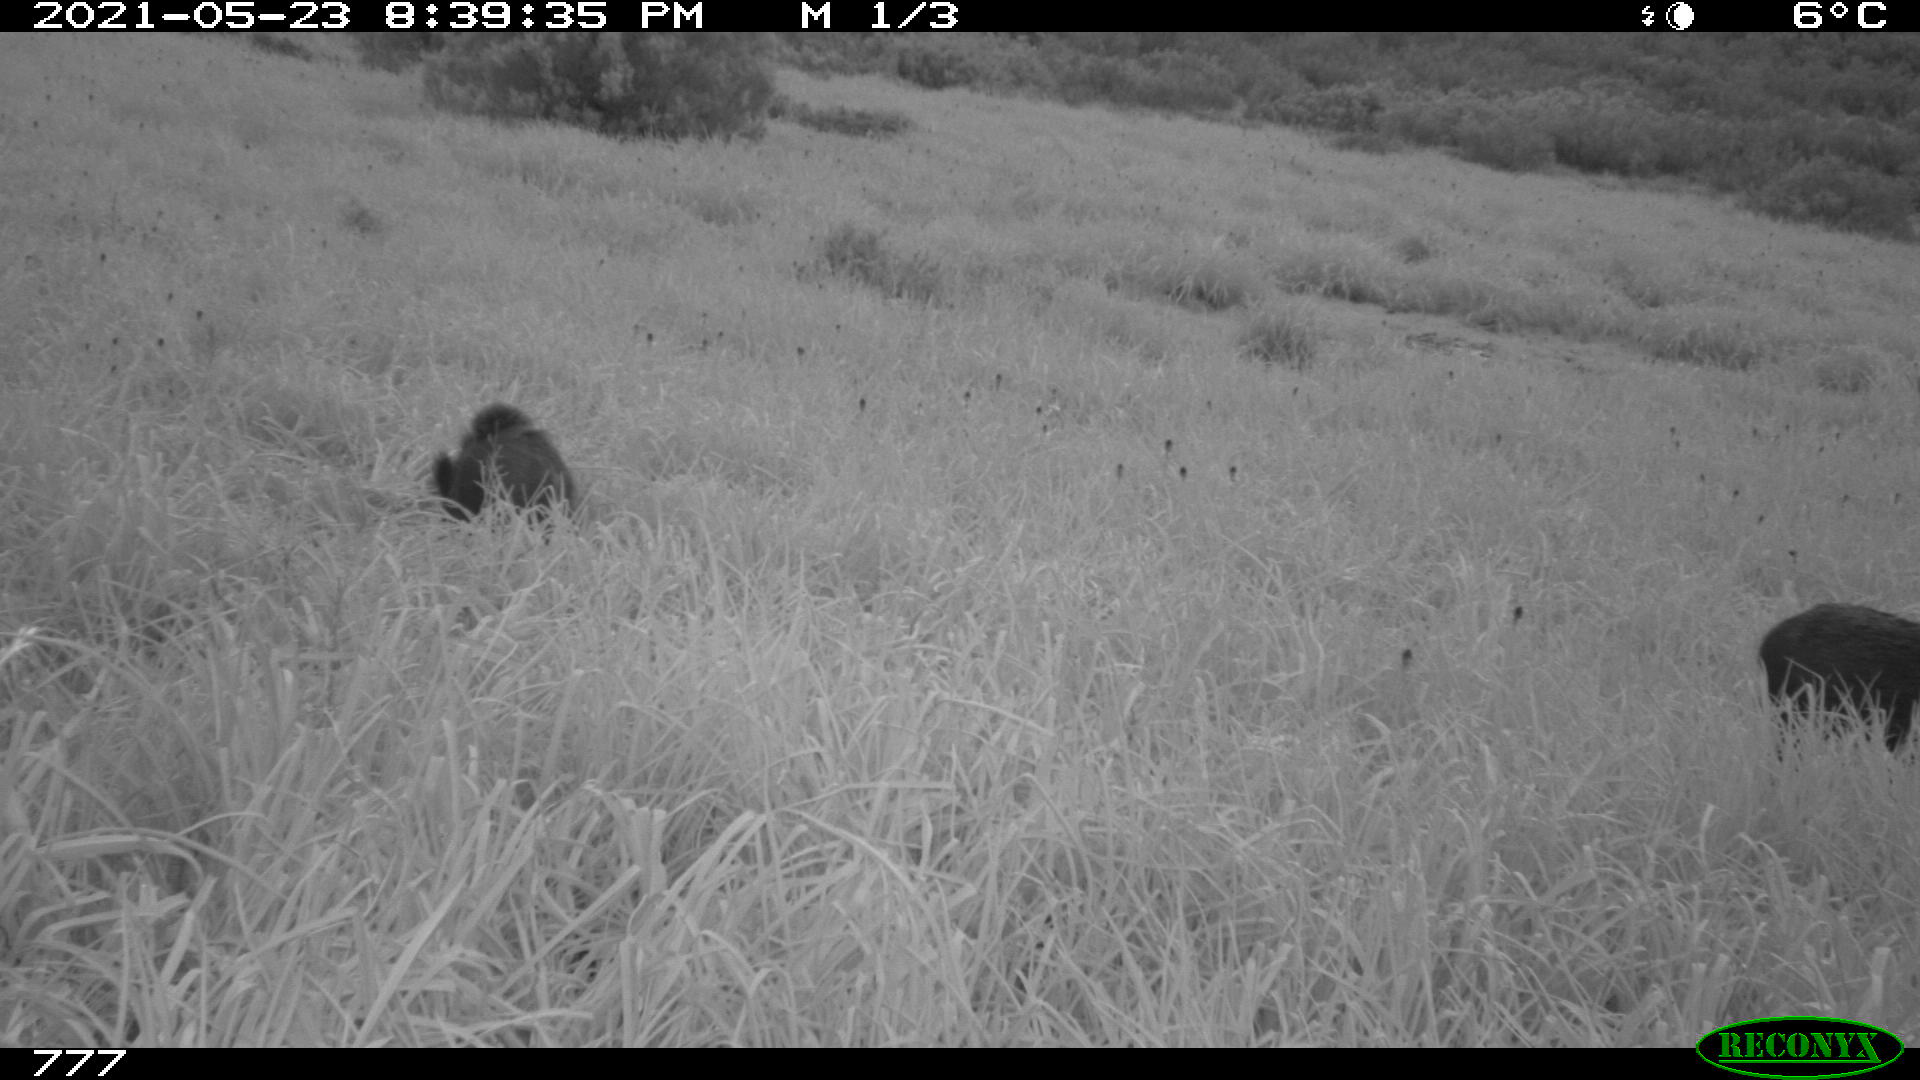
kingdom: Animalia
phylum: Chordata
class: Mammalia
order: Artiodactyla
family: Suidae
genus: Sus
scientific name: Sus scrofa
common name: Wild boar
